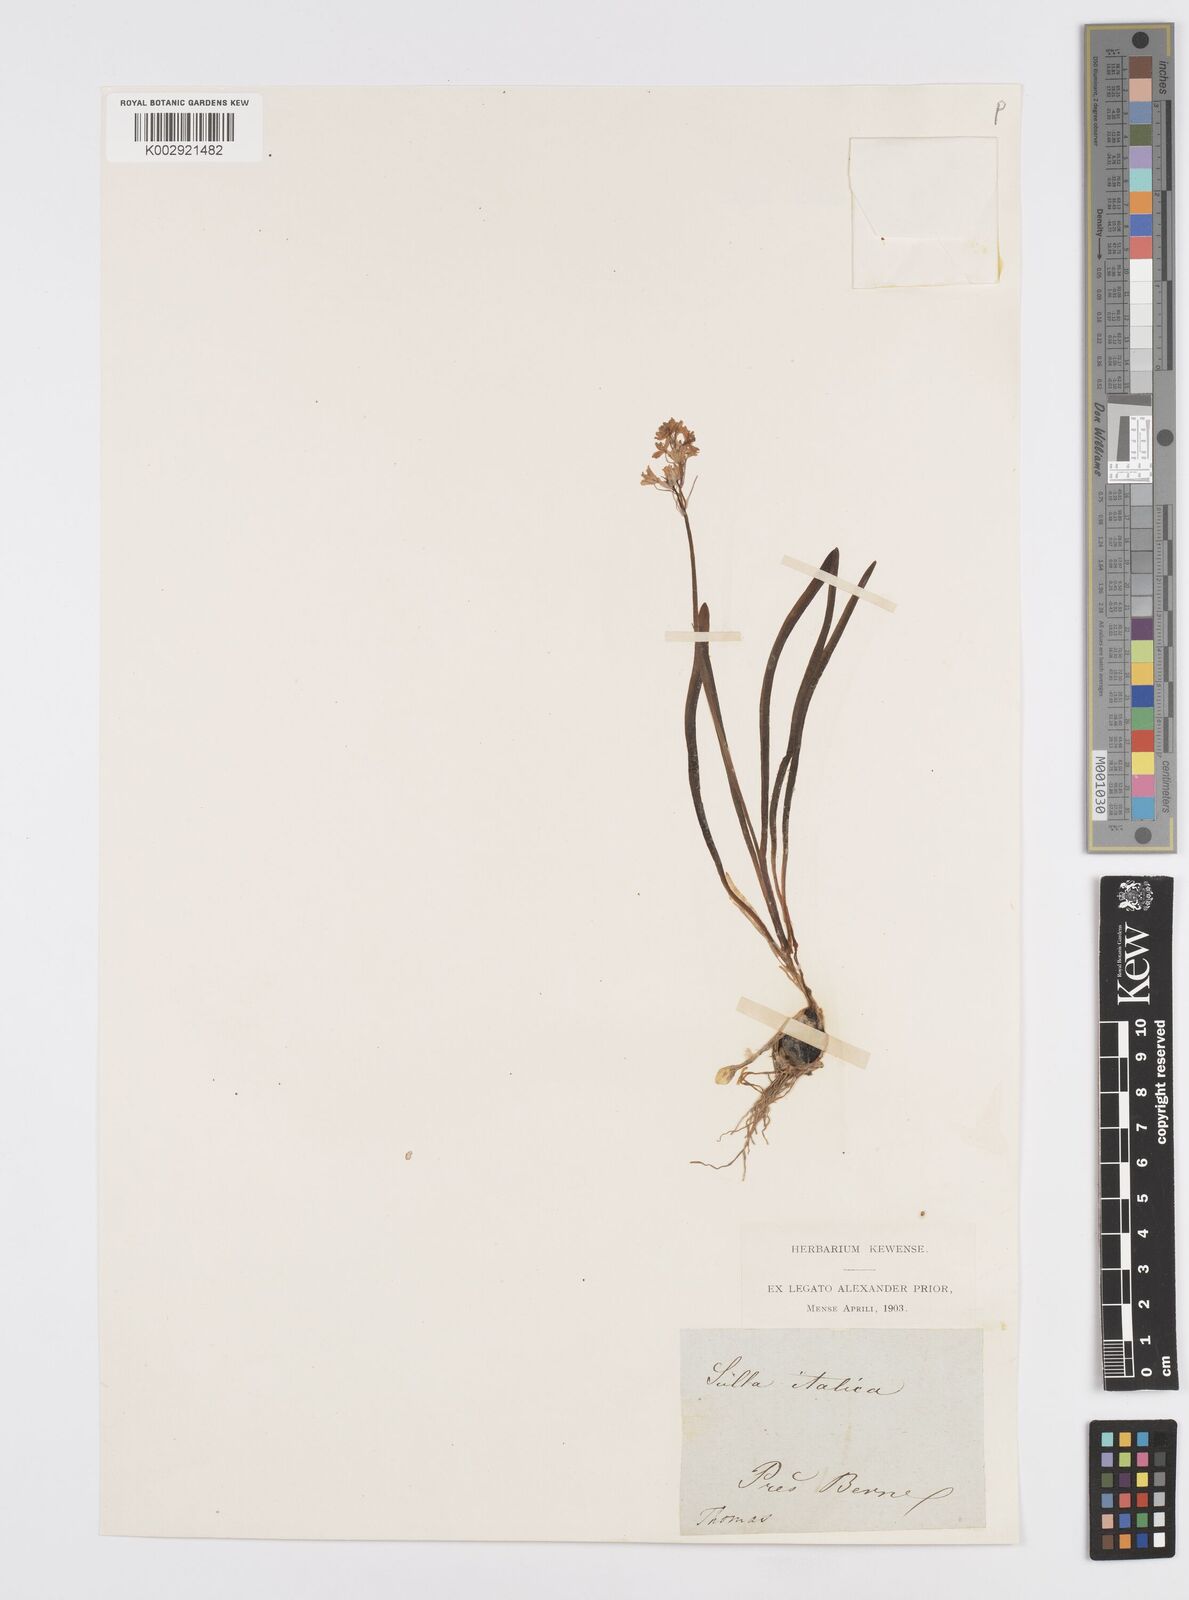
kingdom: Plantae
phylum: Tracheophyta
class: Liliopsida
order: Asparagales
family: Asparagaceae
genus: Hyacinthoides
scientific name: Hyacinthoides italica
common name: Italian bluebell
